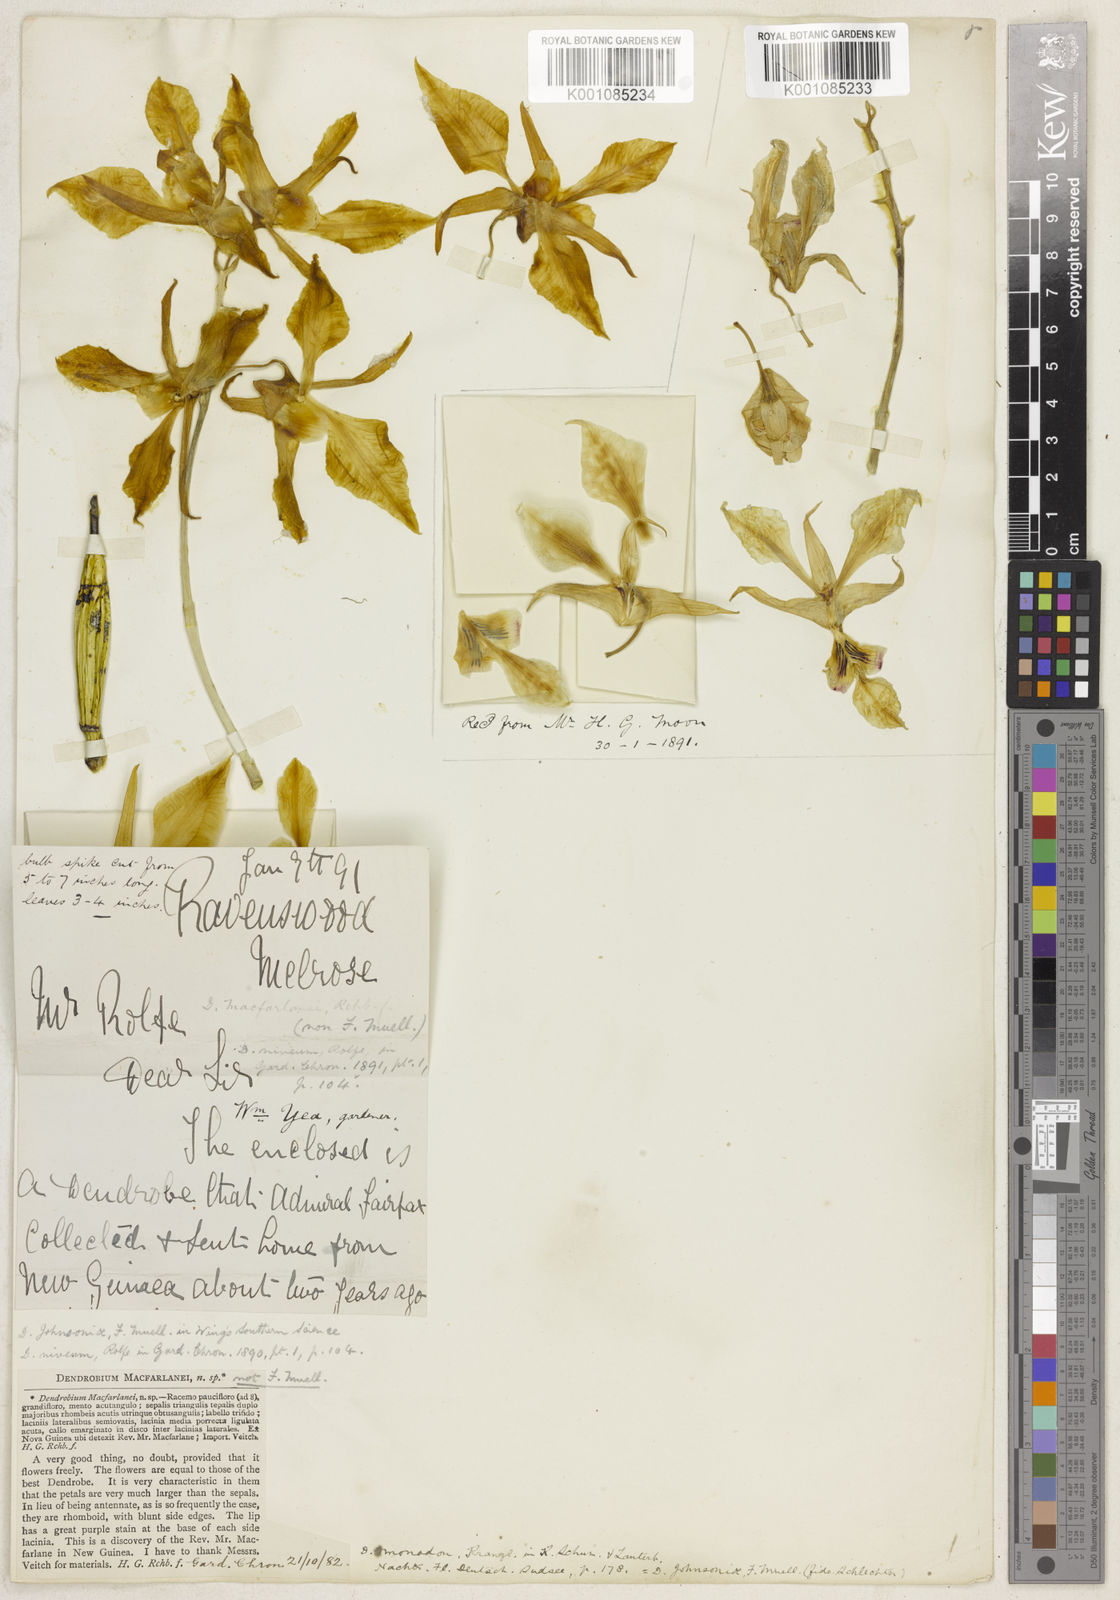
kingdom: Plantae
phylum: Tracheophyta
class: Liliopsida
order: Asparagales
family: Orchidaceae
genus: Dendrobium
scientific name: Dendrobium johnsoniae
